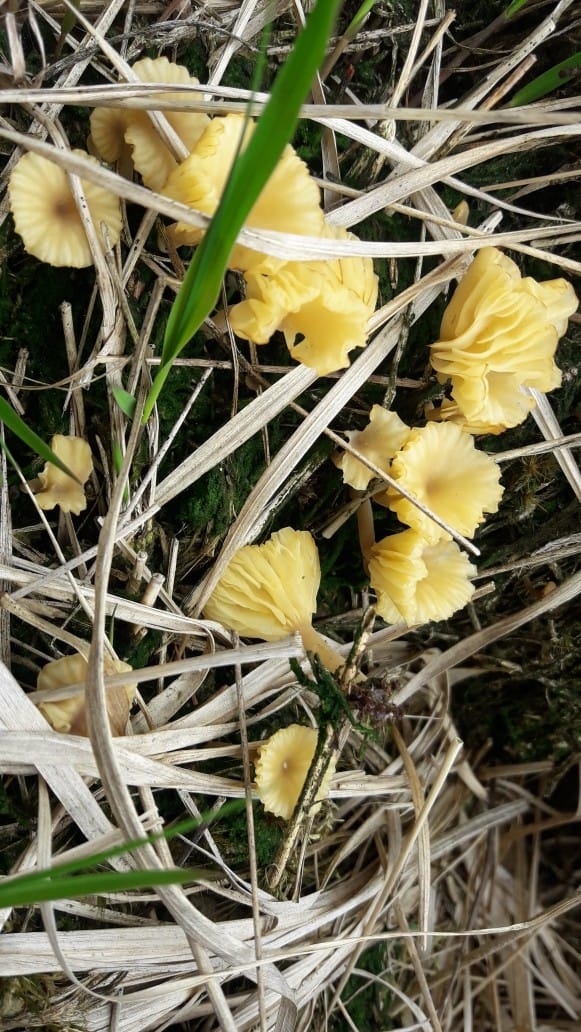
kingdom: Fungi
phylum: Basidiomycota
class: Agaricomycetes
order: Agaricales
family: Hygrophoraceae
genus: Lichenomphalia
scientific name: Lichenomphalia umbellifera
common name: tørve-lavhat
